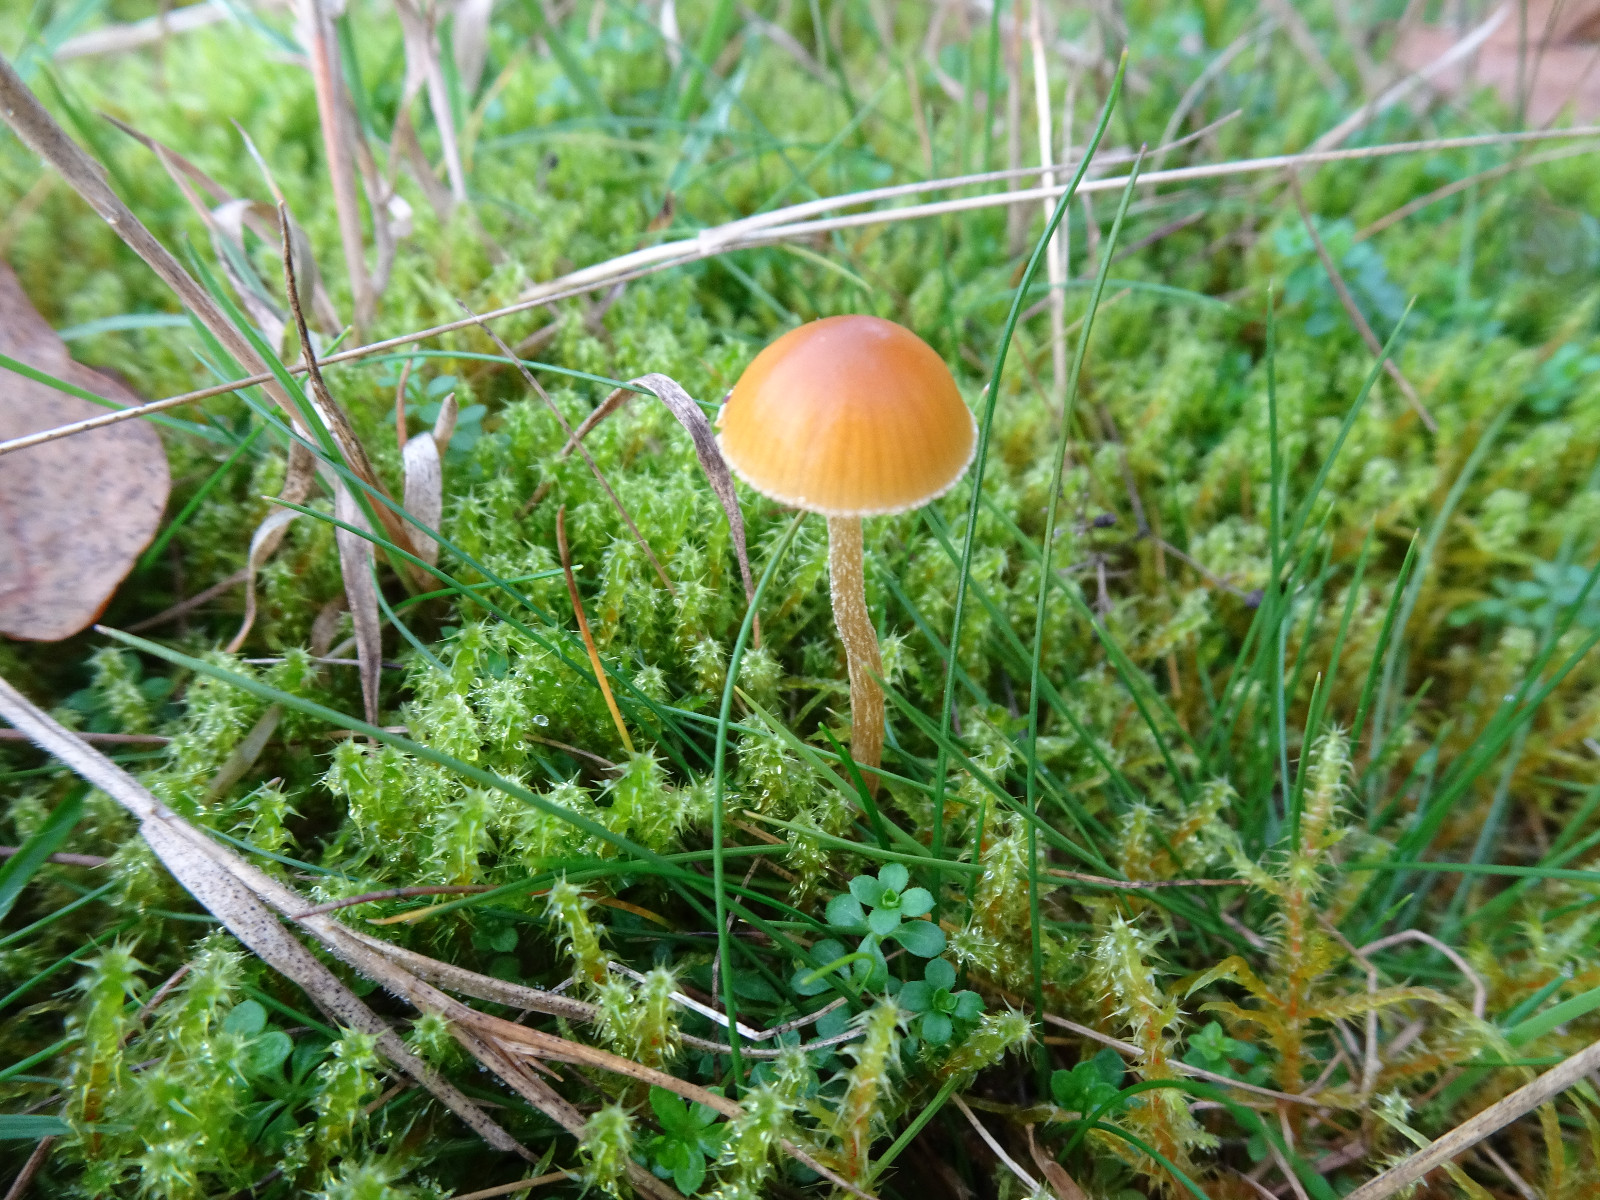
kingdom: Fungi
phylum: Basidiomycota
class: Agaricomycetes
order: Agaricales
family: Hymenogastraceae
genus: Phaeogalera
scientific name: Phaeogalera
